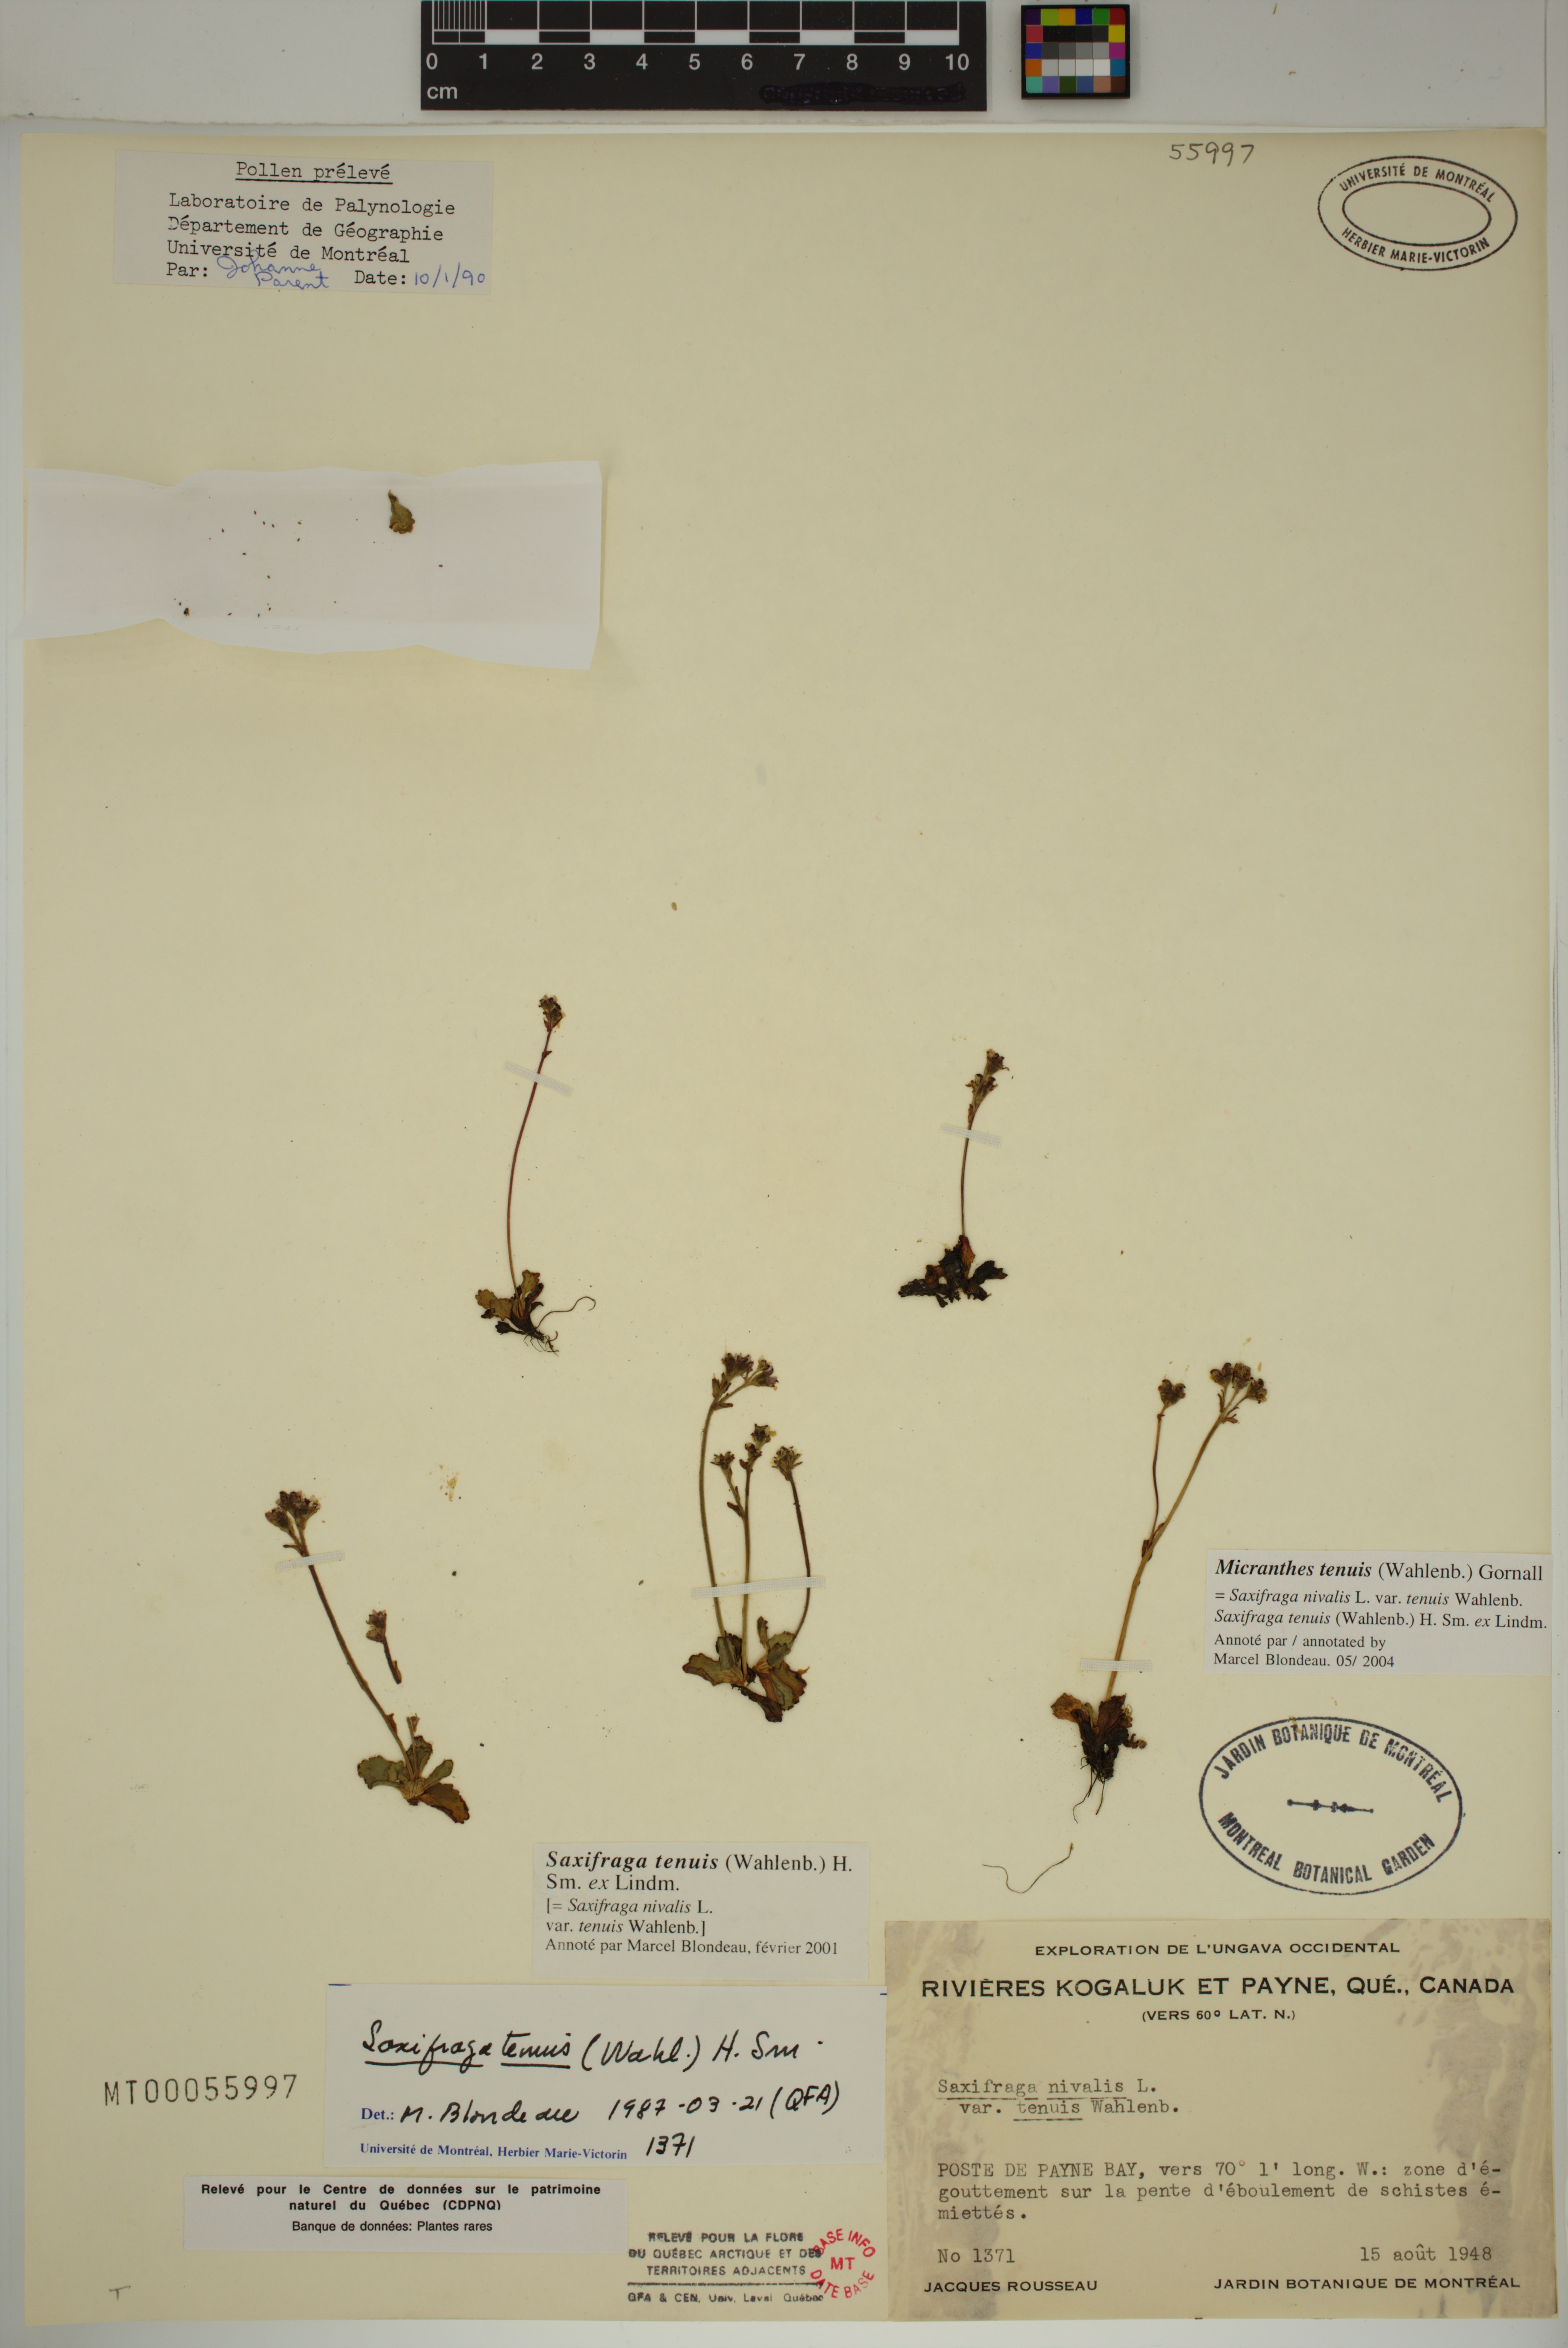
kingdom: Plantae
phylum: Tracheophyta
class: Magnoliopsida
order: Saxifragales
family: Saxifragaceae
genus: Micranthes
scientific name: Micranthes tenuis
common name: Ottertail pass saxifrage
